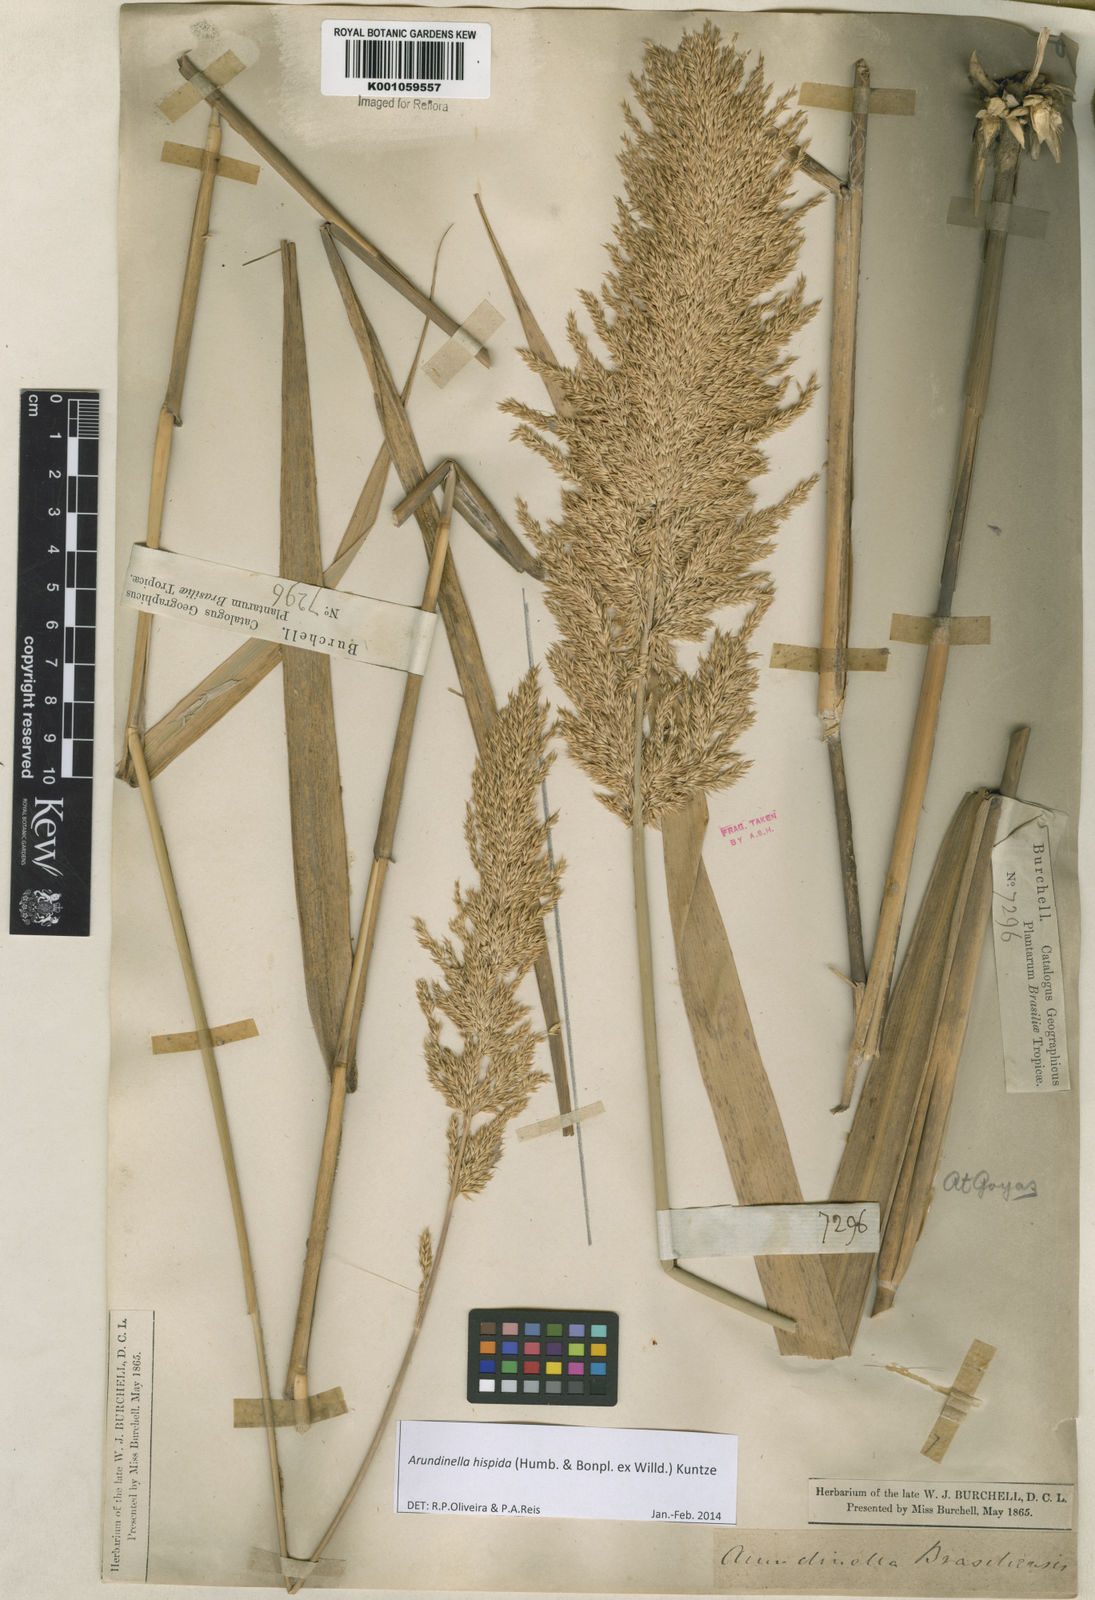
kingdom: Plantae
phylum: Tracheophyta
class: Liliopsida
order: Poales
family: Poaceae
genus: Arundinella
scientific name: Arundinella hispida
